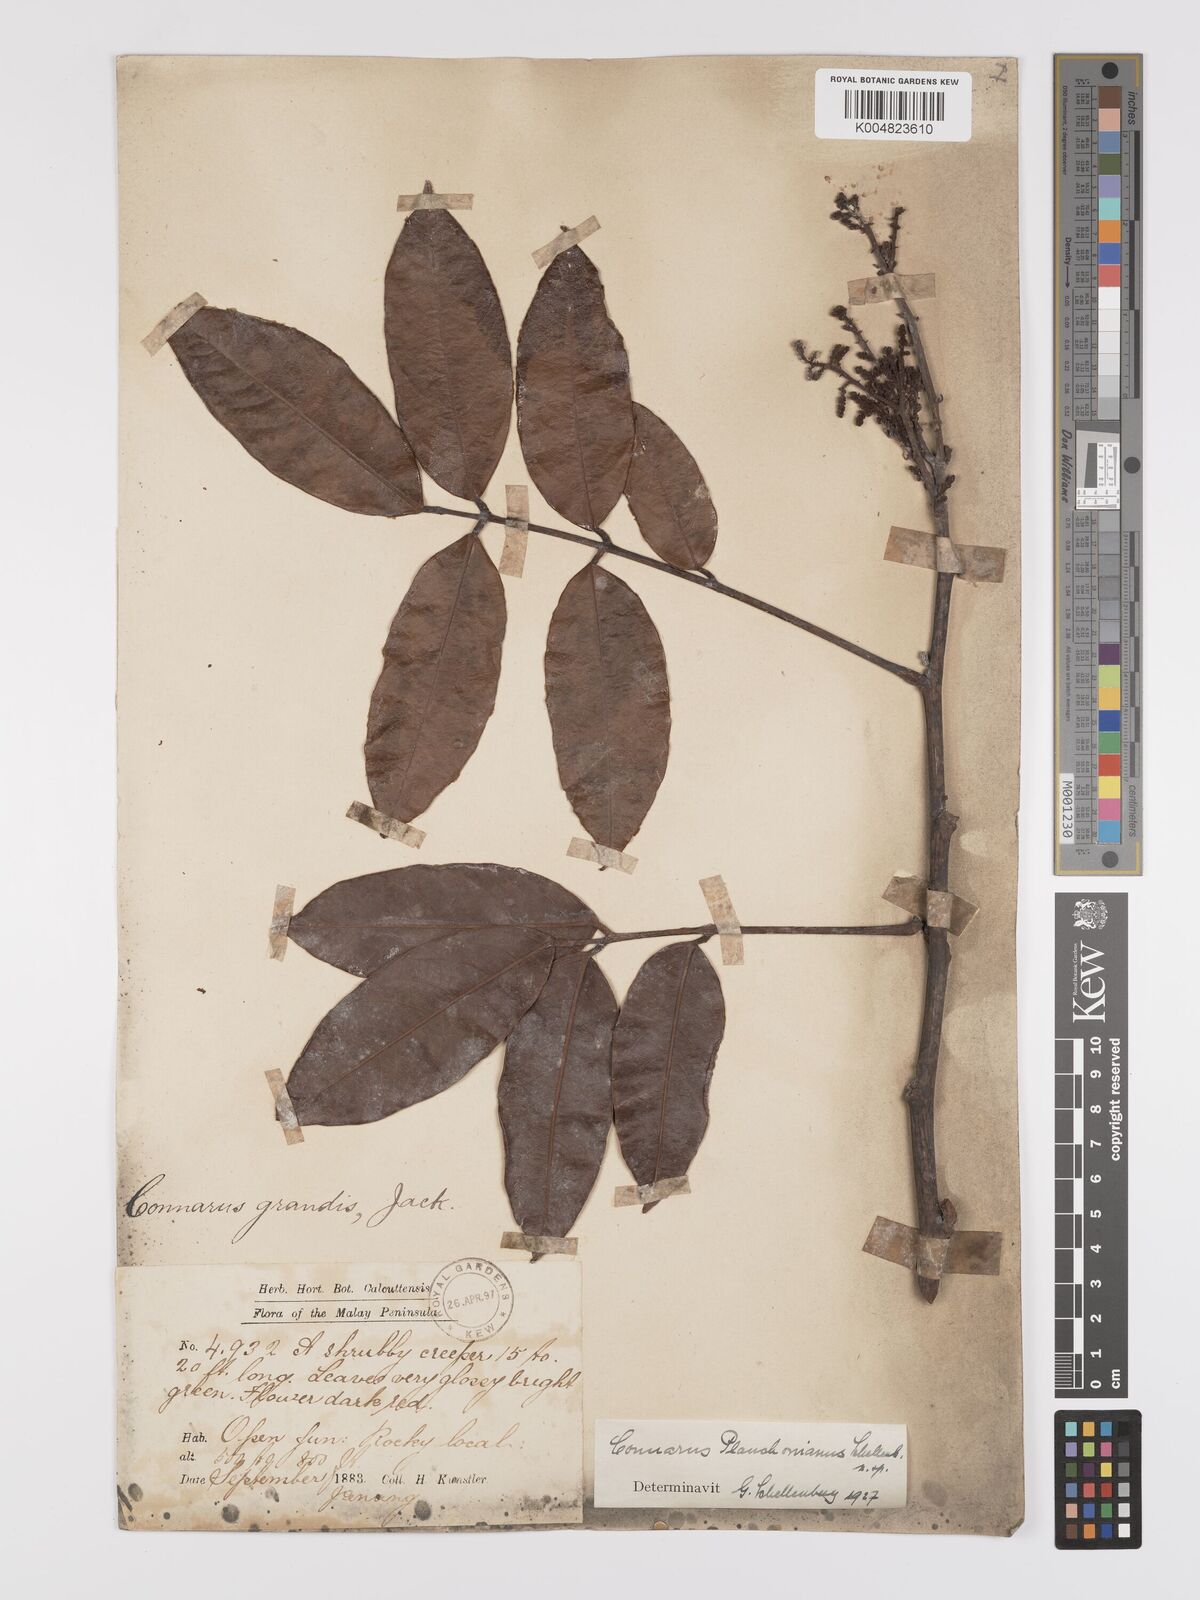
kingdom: Plantae
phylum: Tracheophyta
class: Magnoliopsida
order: Oxalidales
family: Connaraceae
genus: Connarus
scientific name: Connarus planchonianus
